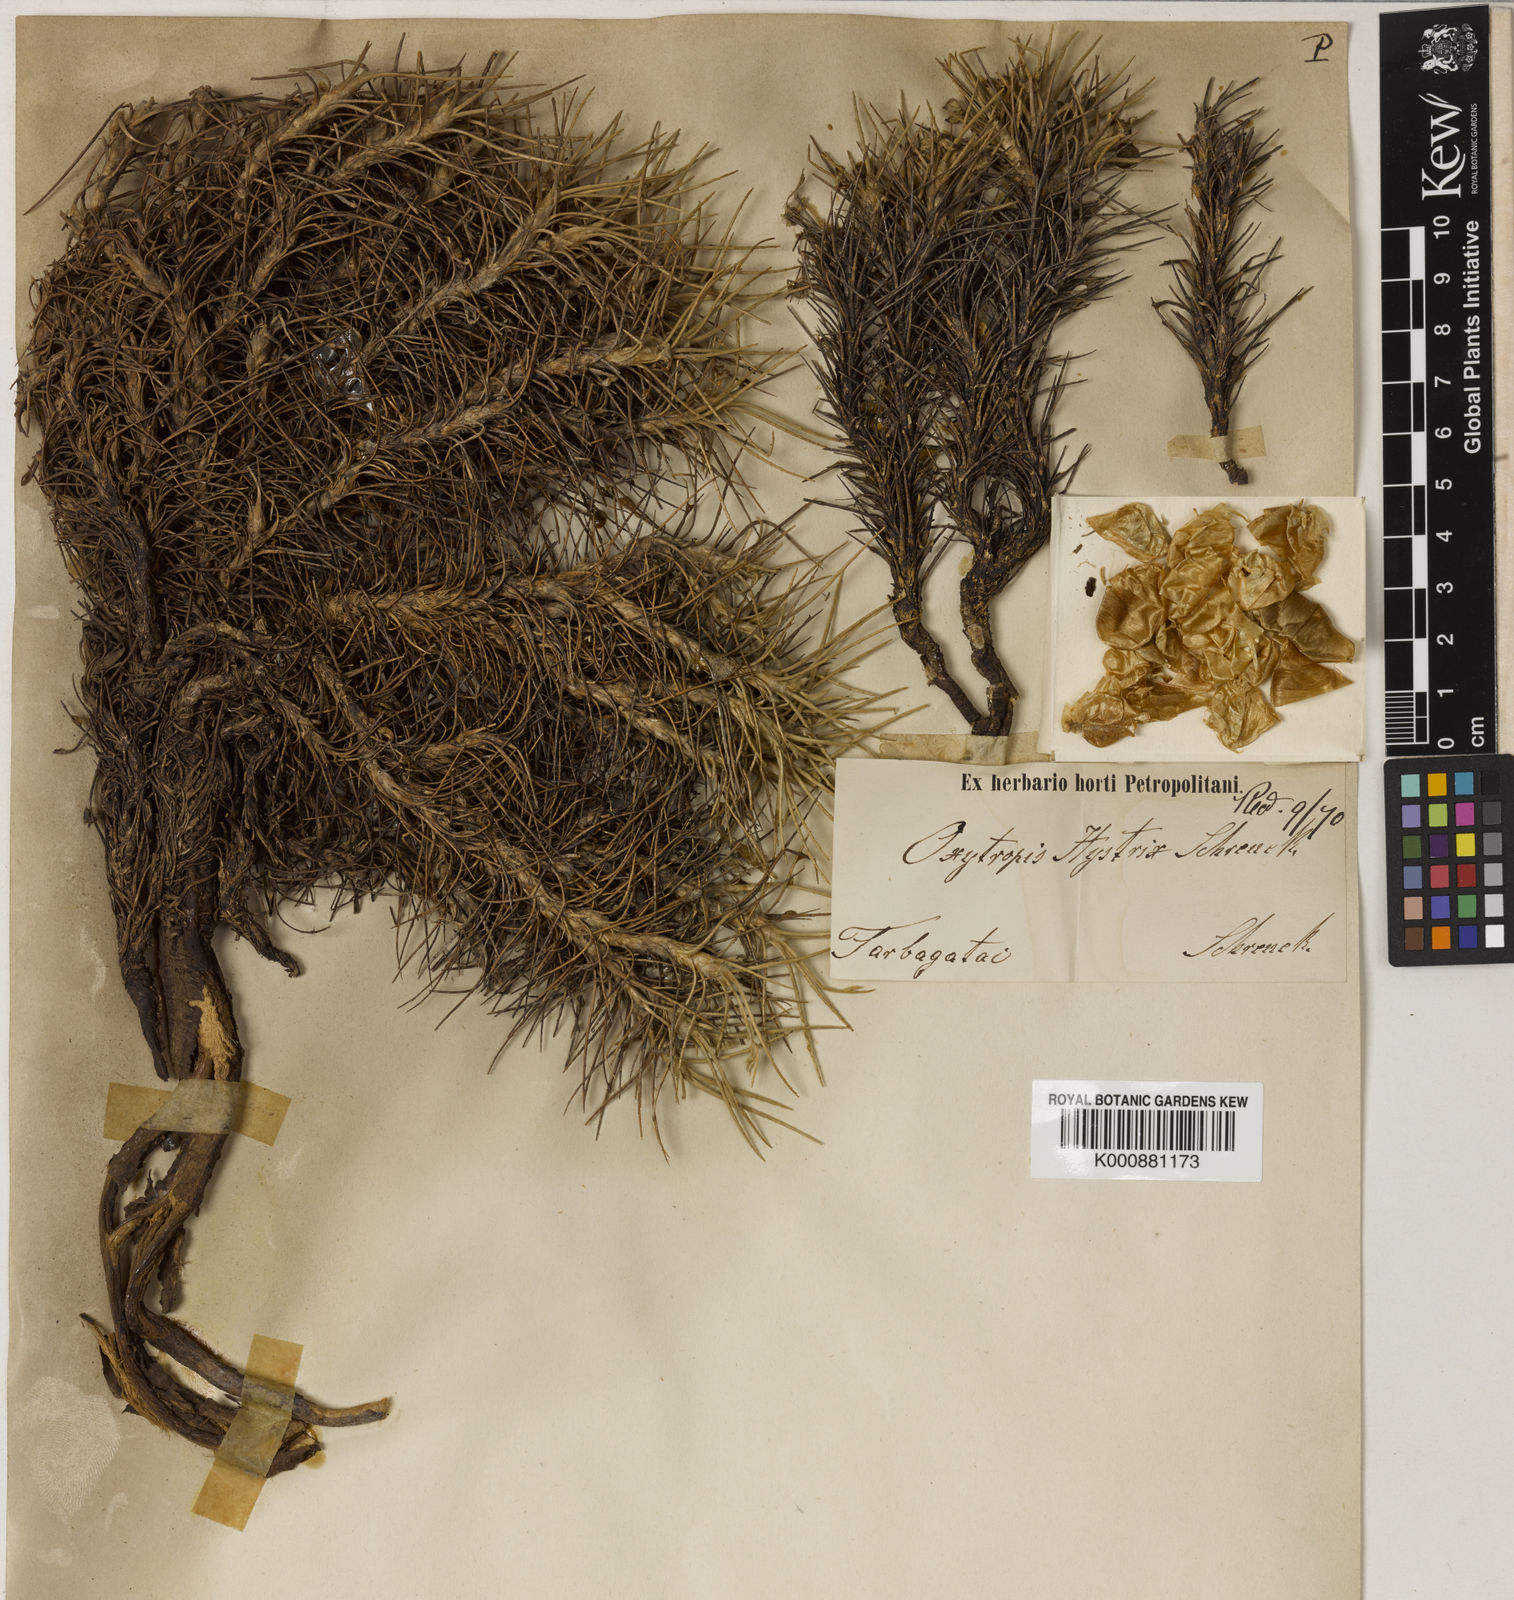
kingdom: Plantae
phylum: Tracheophyta
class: Magnoliopsida
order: Fabales
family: Fabaceae
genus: Oxytropis
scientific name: Oxytropis hystrix
